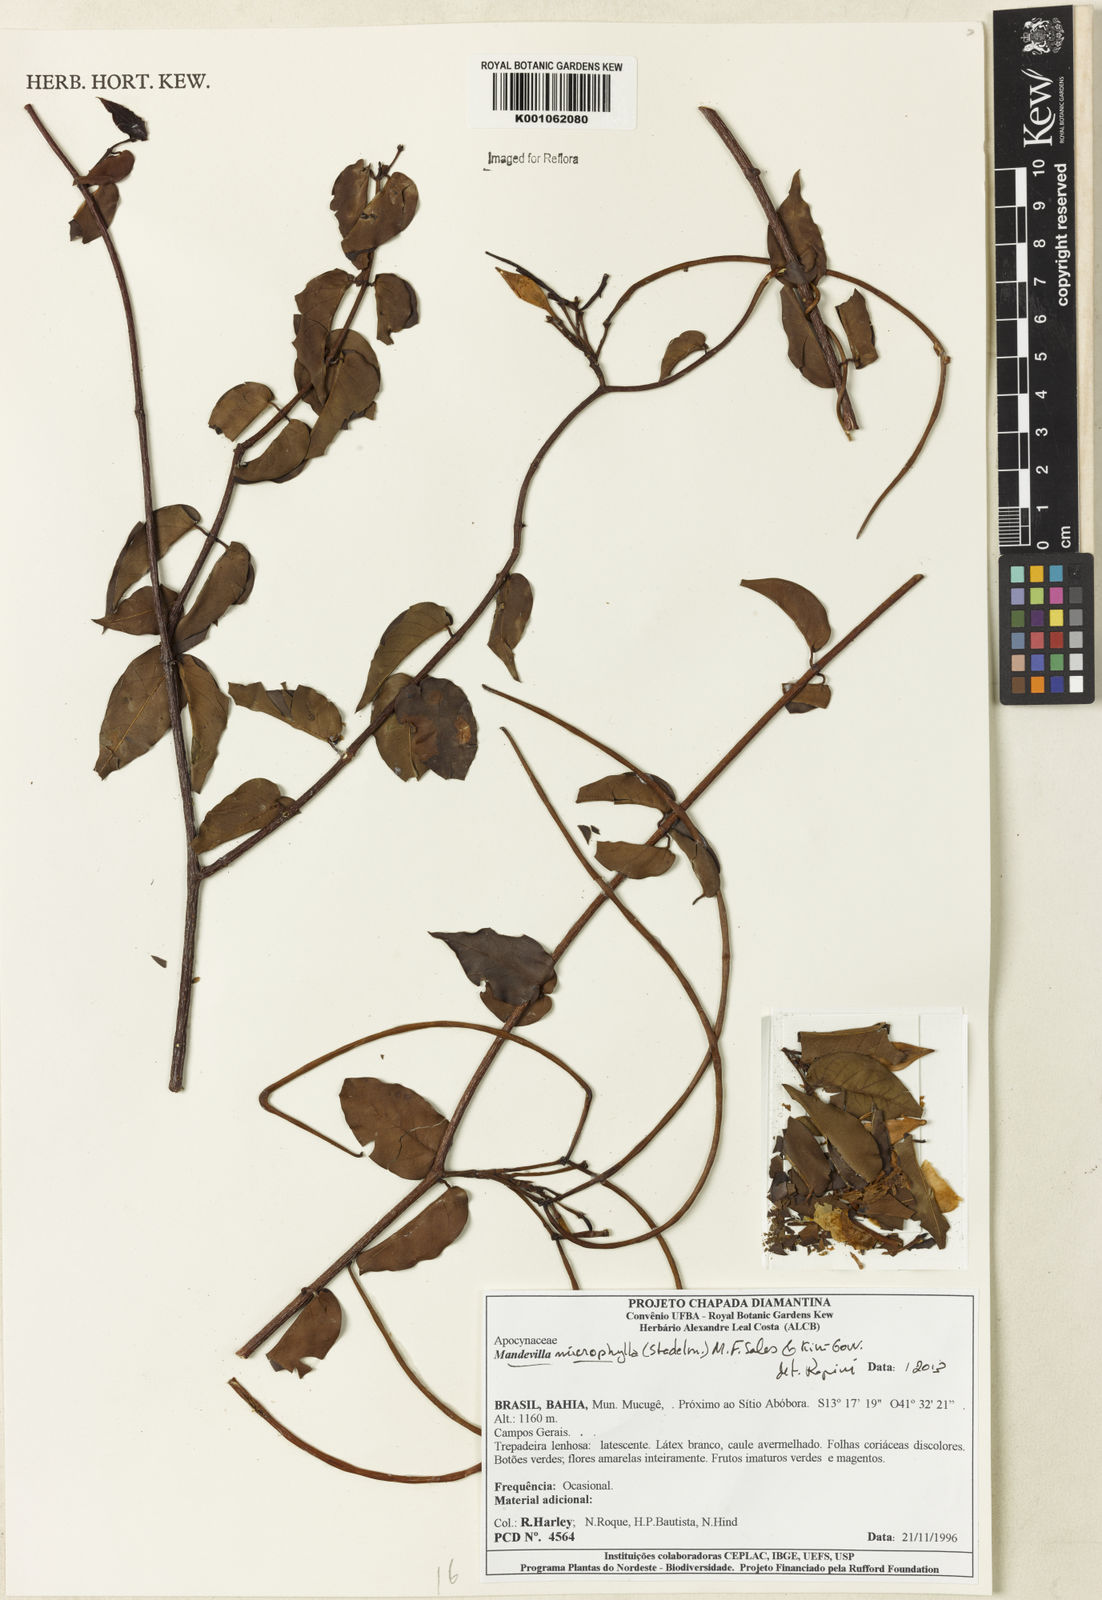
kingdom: Plantae
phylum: Tracheophyta
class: Magnoliopsida
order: Gentianales
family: Apocynaceae
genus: Mandevilla
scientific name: Mandevilla
